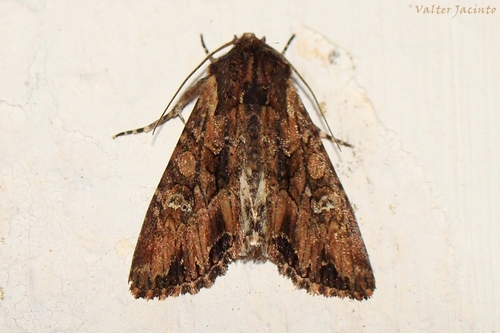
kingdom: Animalia
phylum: Arthropoda
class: Insecta
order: Lepidoptera
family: Noctuidae
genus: Mniotype
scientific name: Mniotype occidentalis
